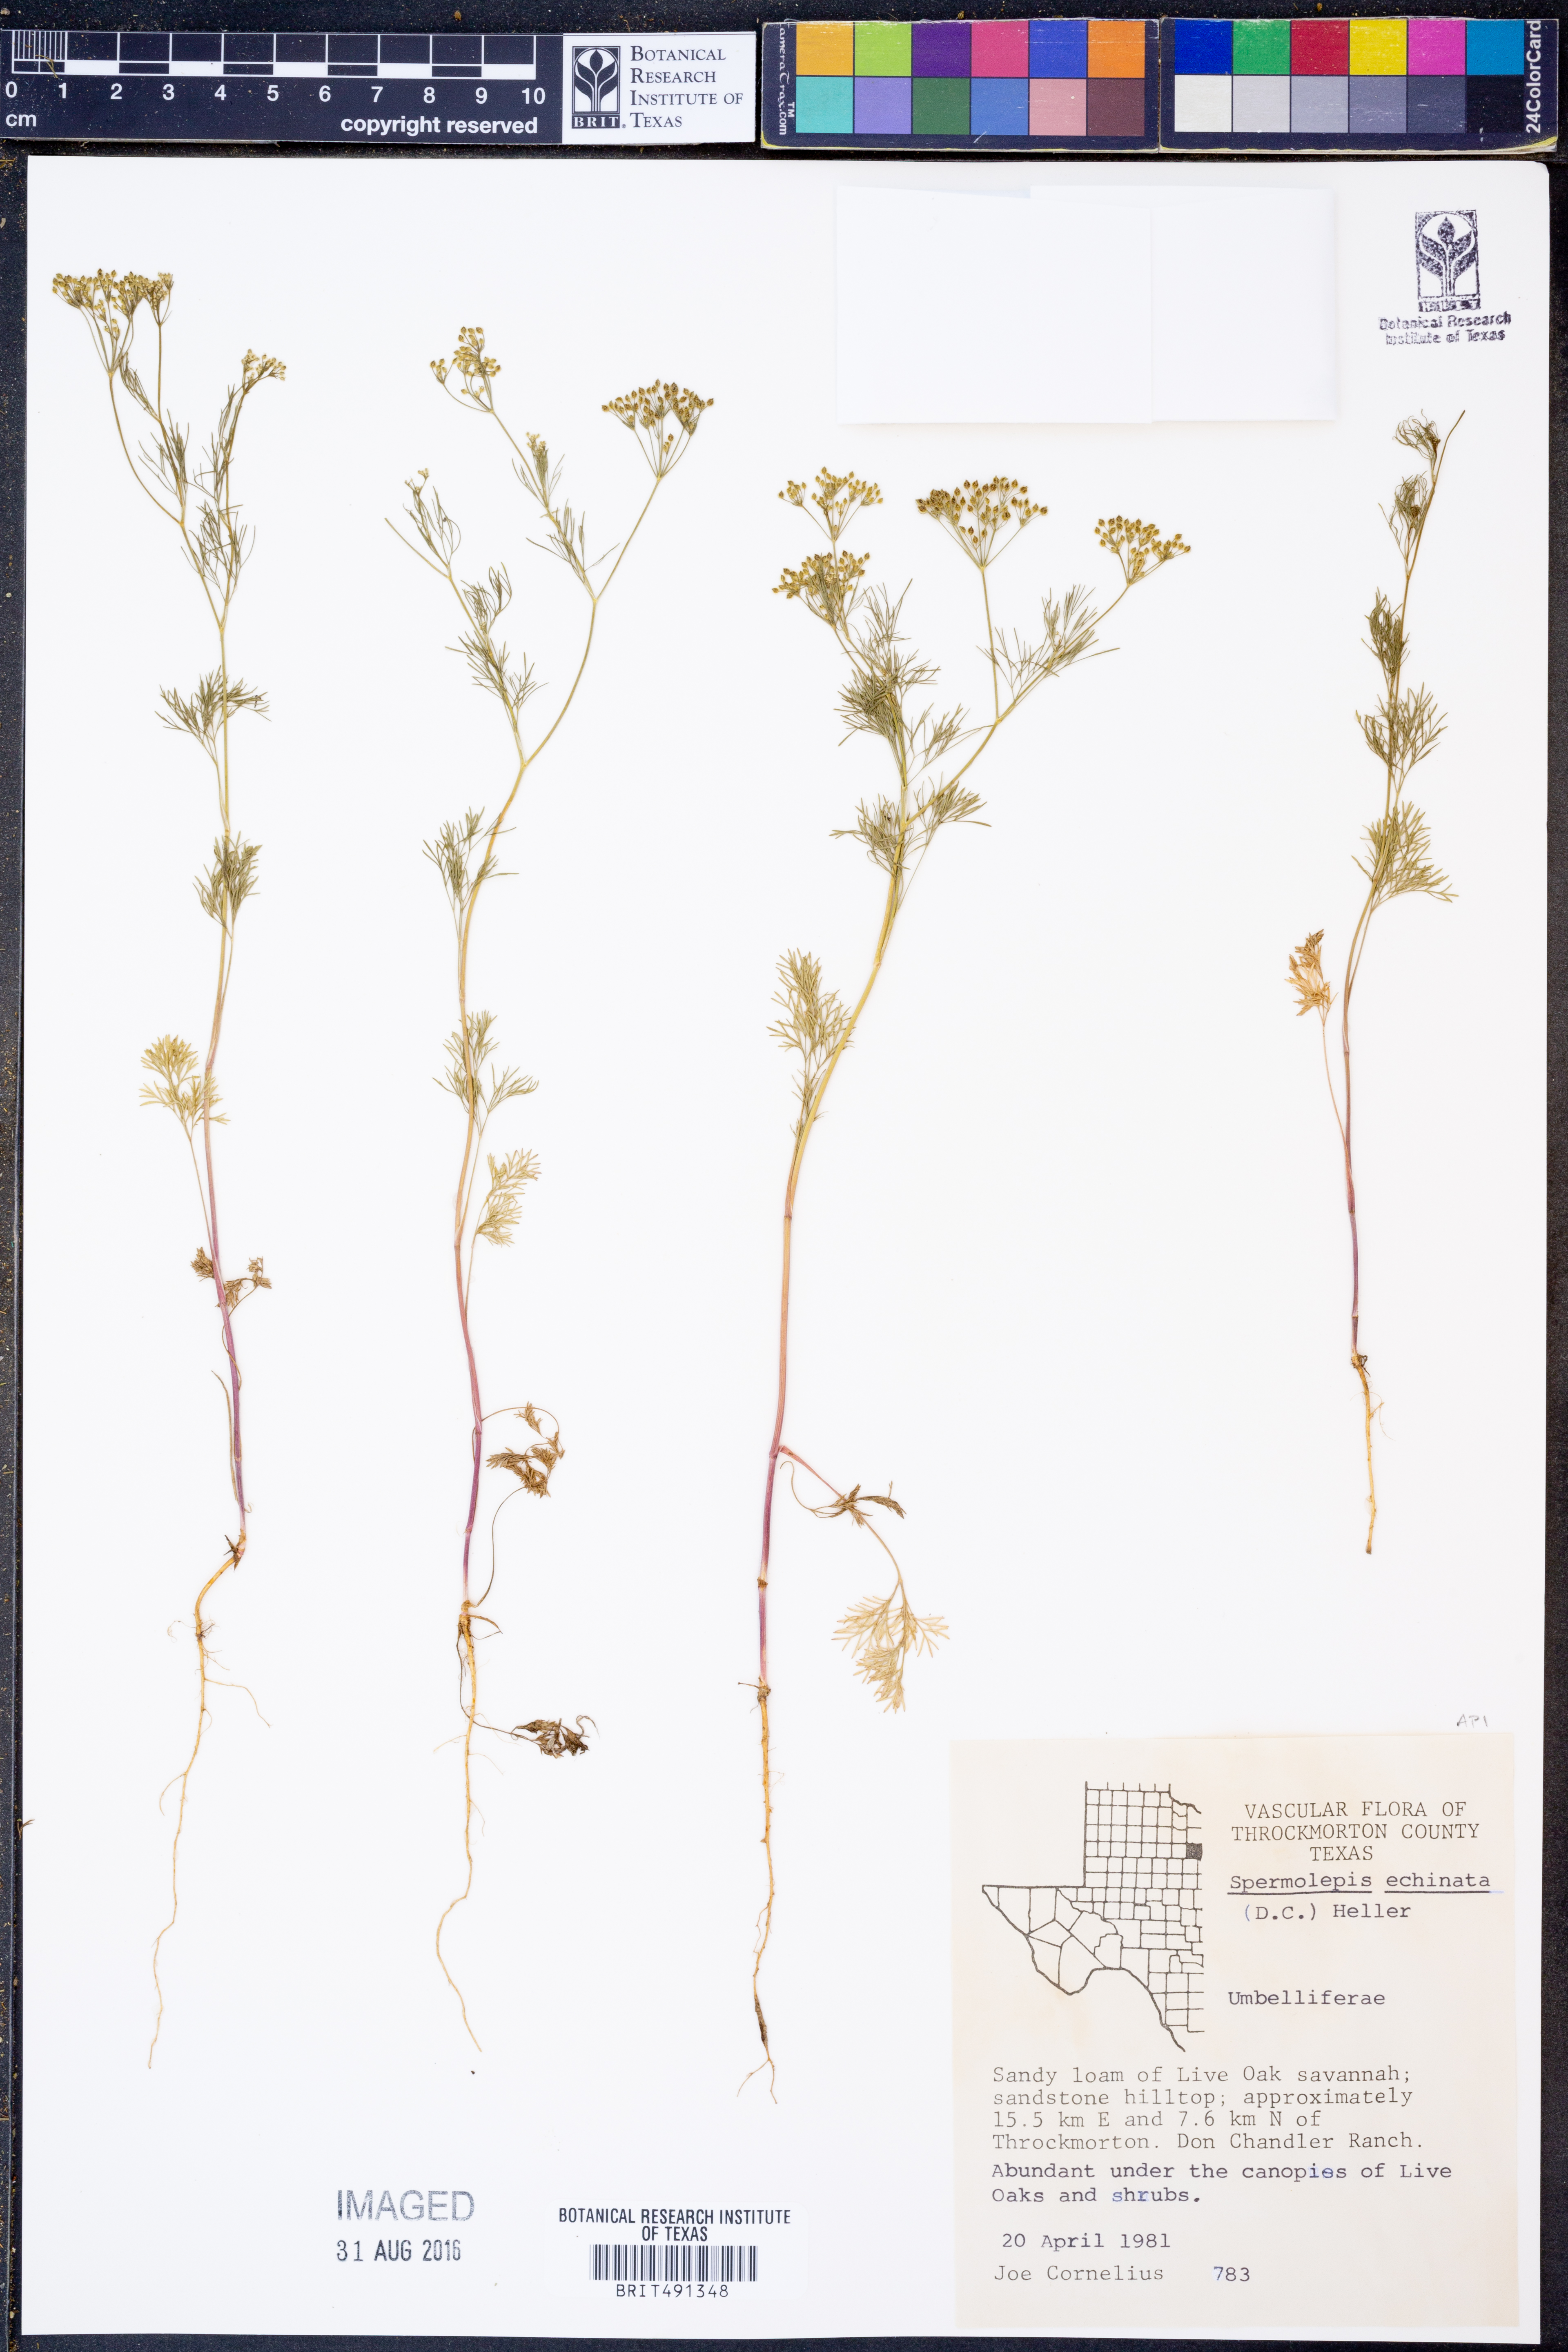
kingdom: Plantae
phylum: Tracheophyta
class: Magnoliopsida
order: Apiales
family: Apiaceae
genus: Spermolepis
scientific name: Spermolepis echinata
